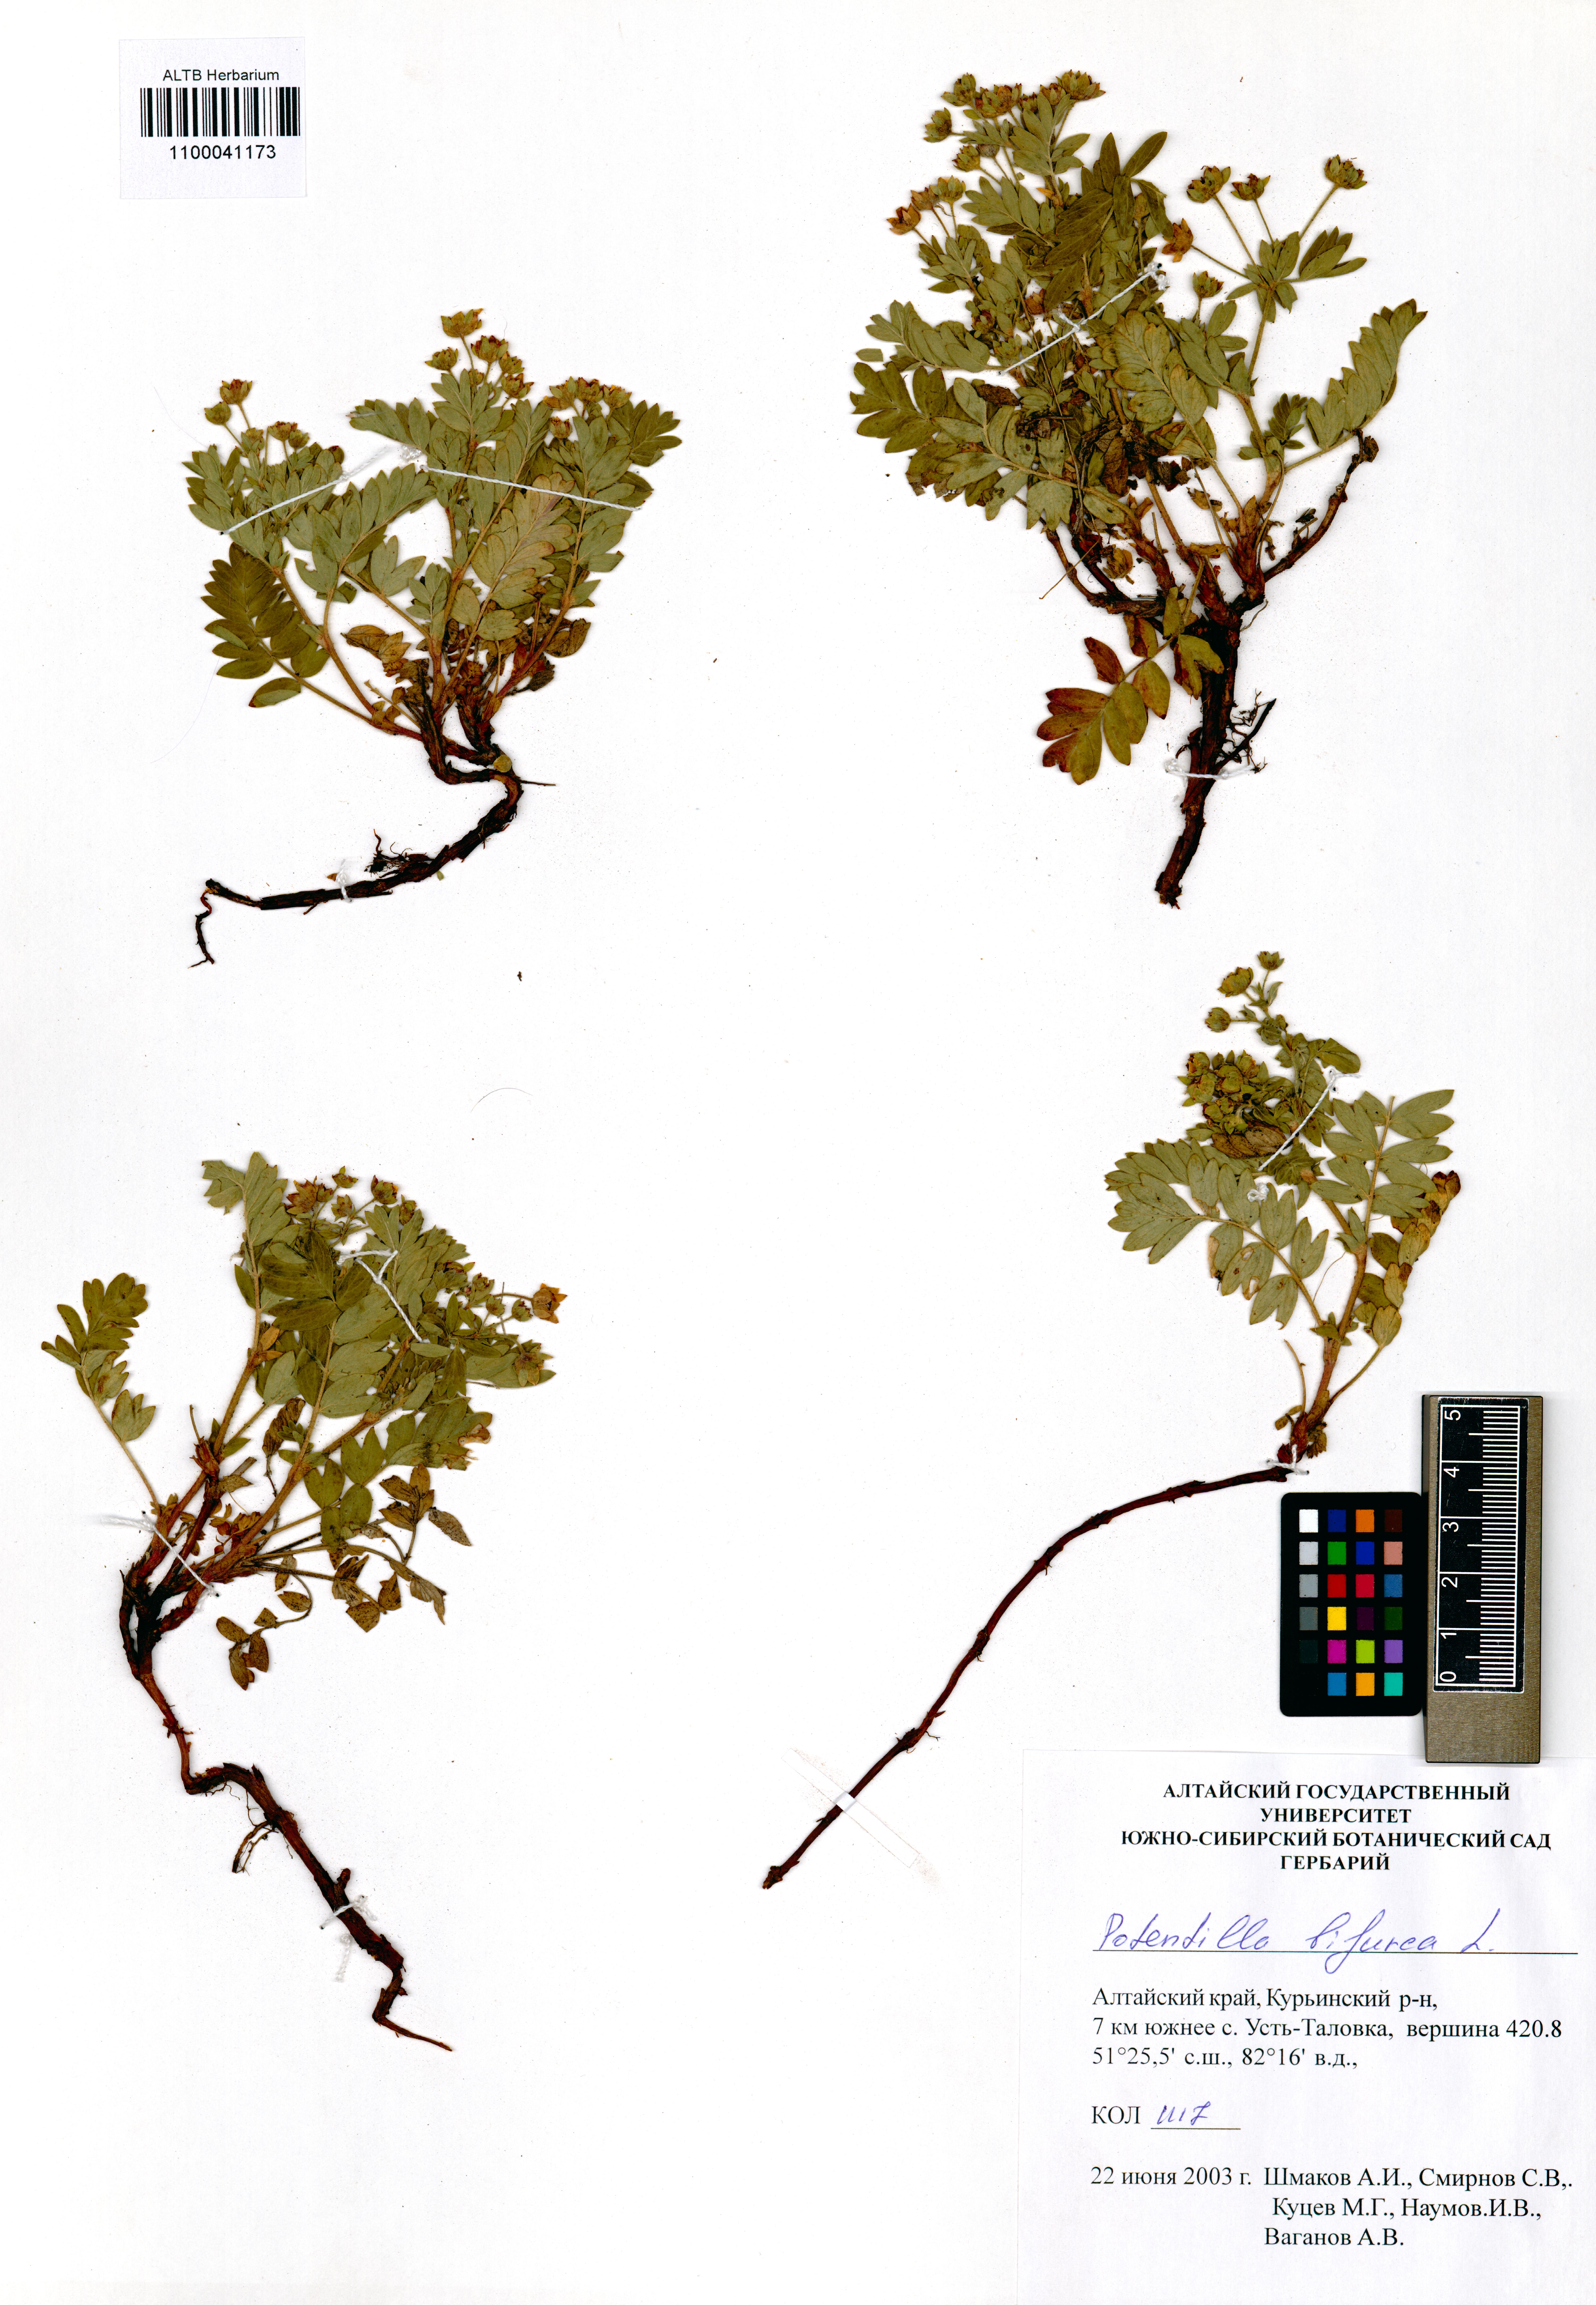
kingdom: Plantae
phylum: Tracheophyta
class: Magnoliopsida
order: Rosales
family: Rosaceae
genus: Sibbaldianthe
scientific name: Sibbaldianthe bifurca
